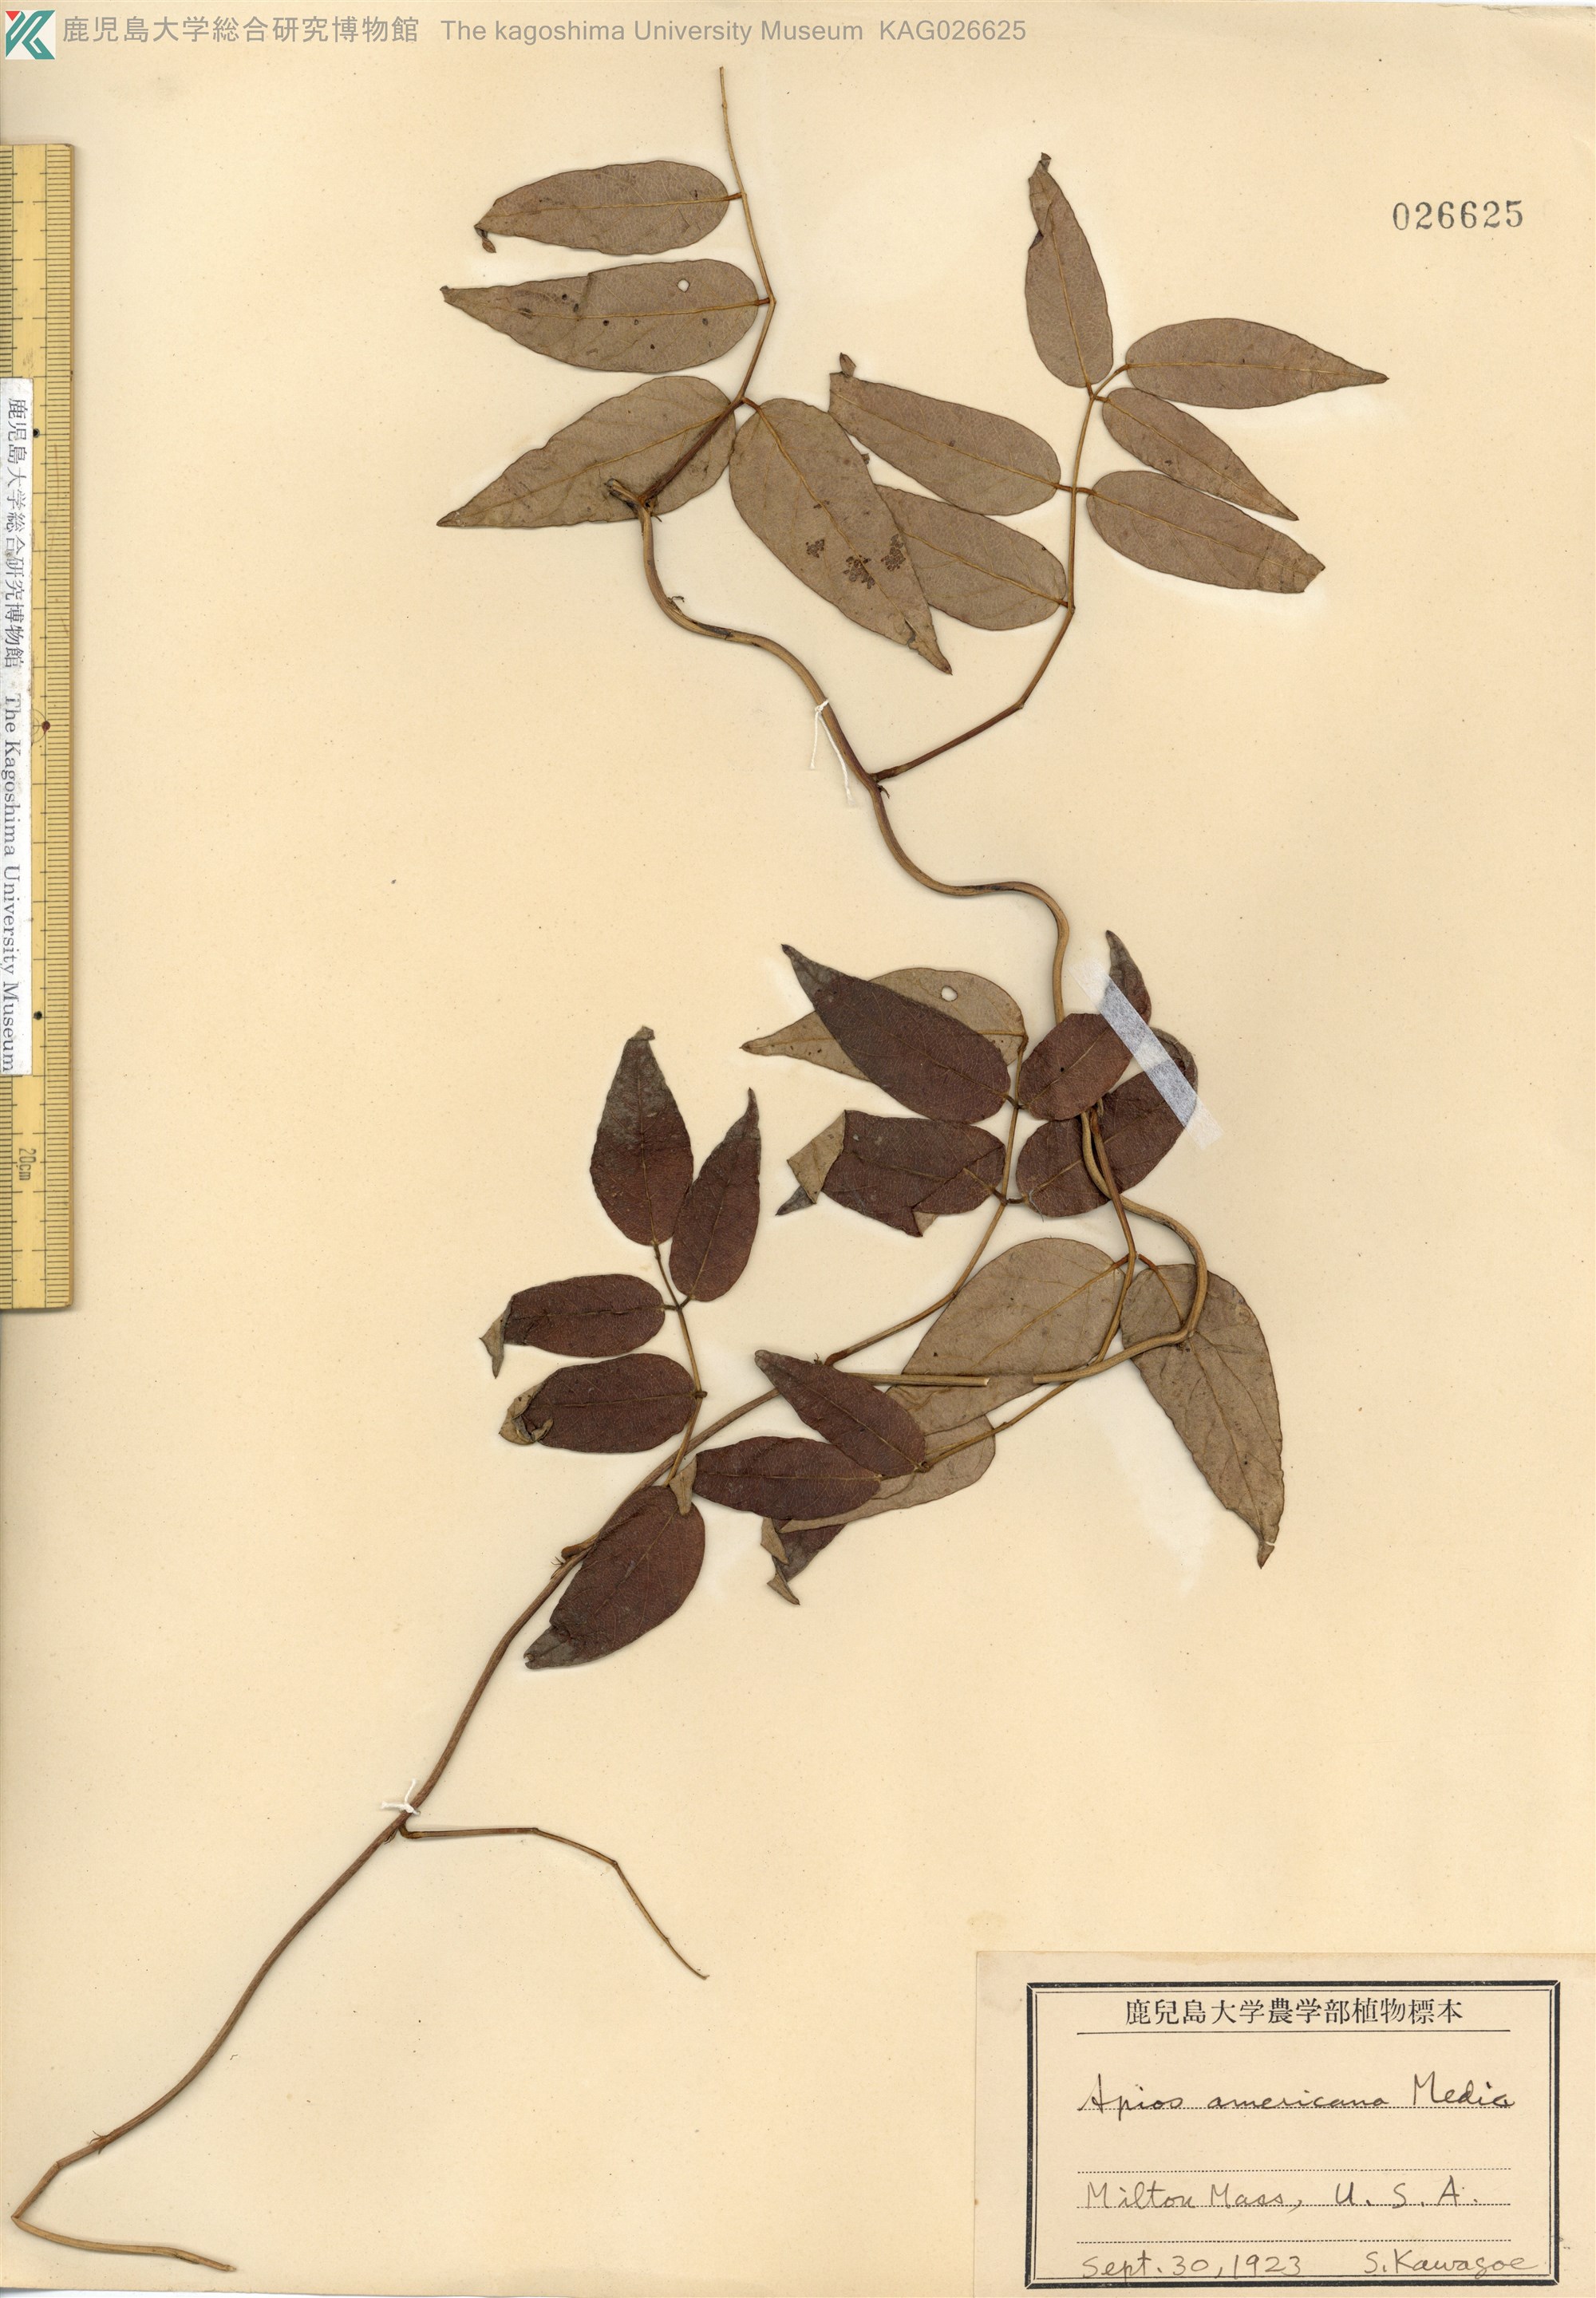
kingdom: Plantae
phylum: Tracheophyta
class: Magnoliopsida
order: Fabales
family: Fabaceae
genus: Apios
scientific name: Apios americana
